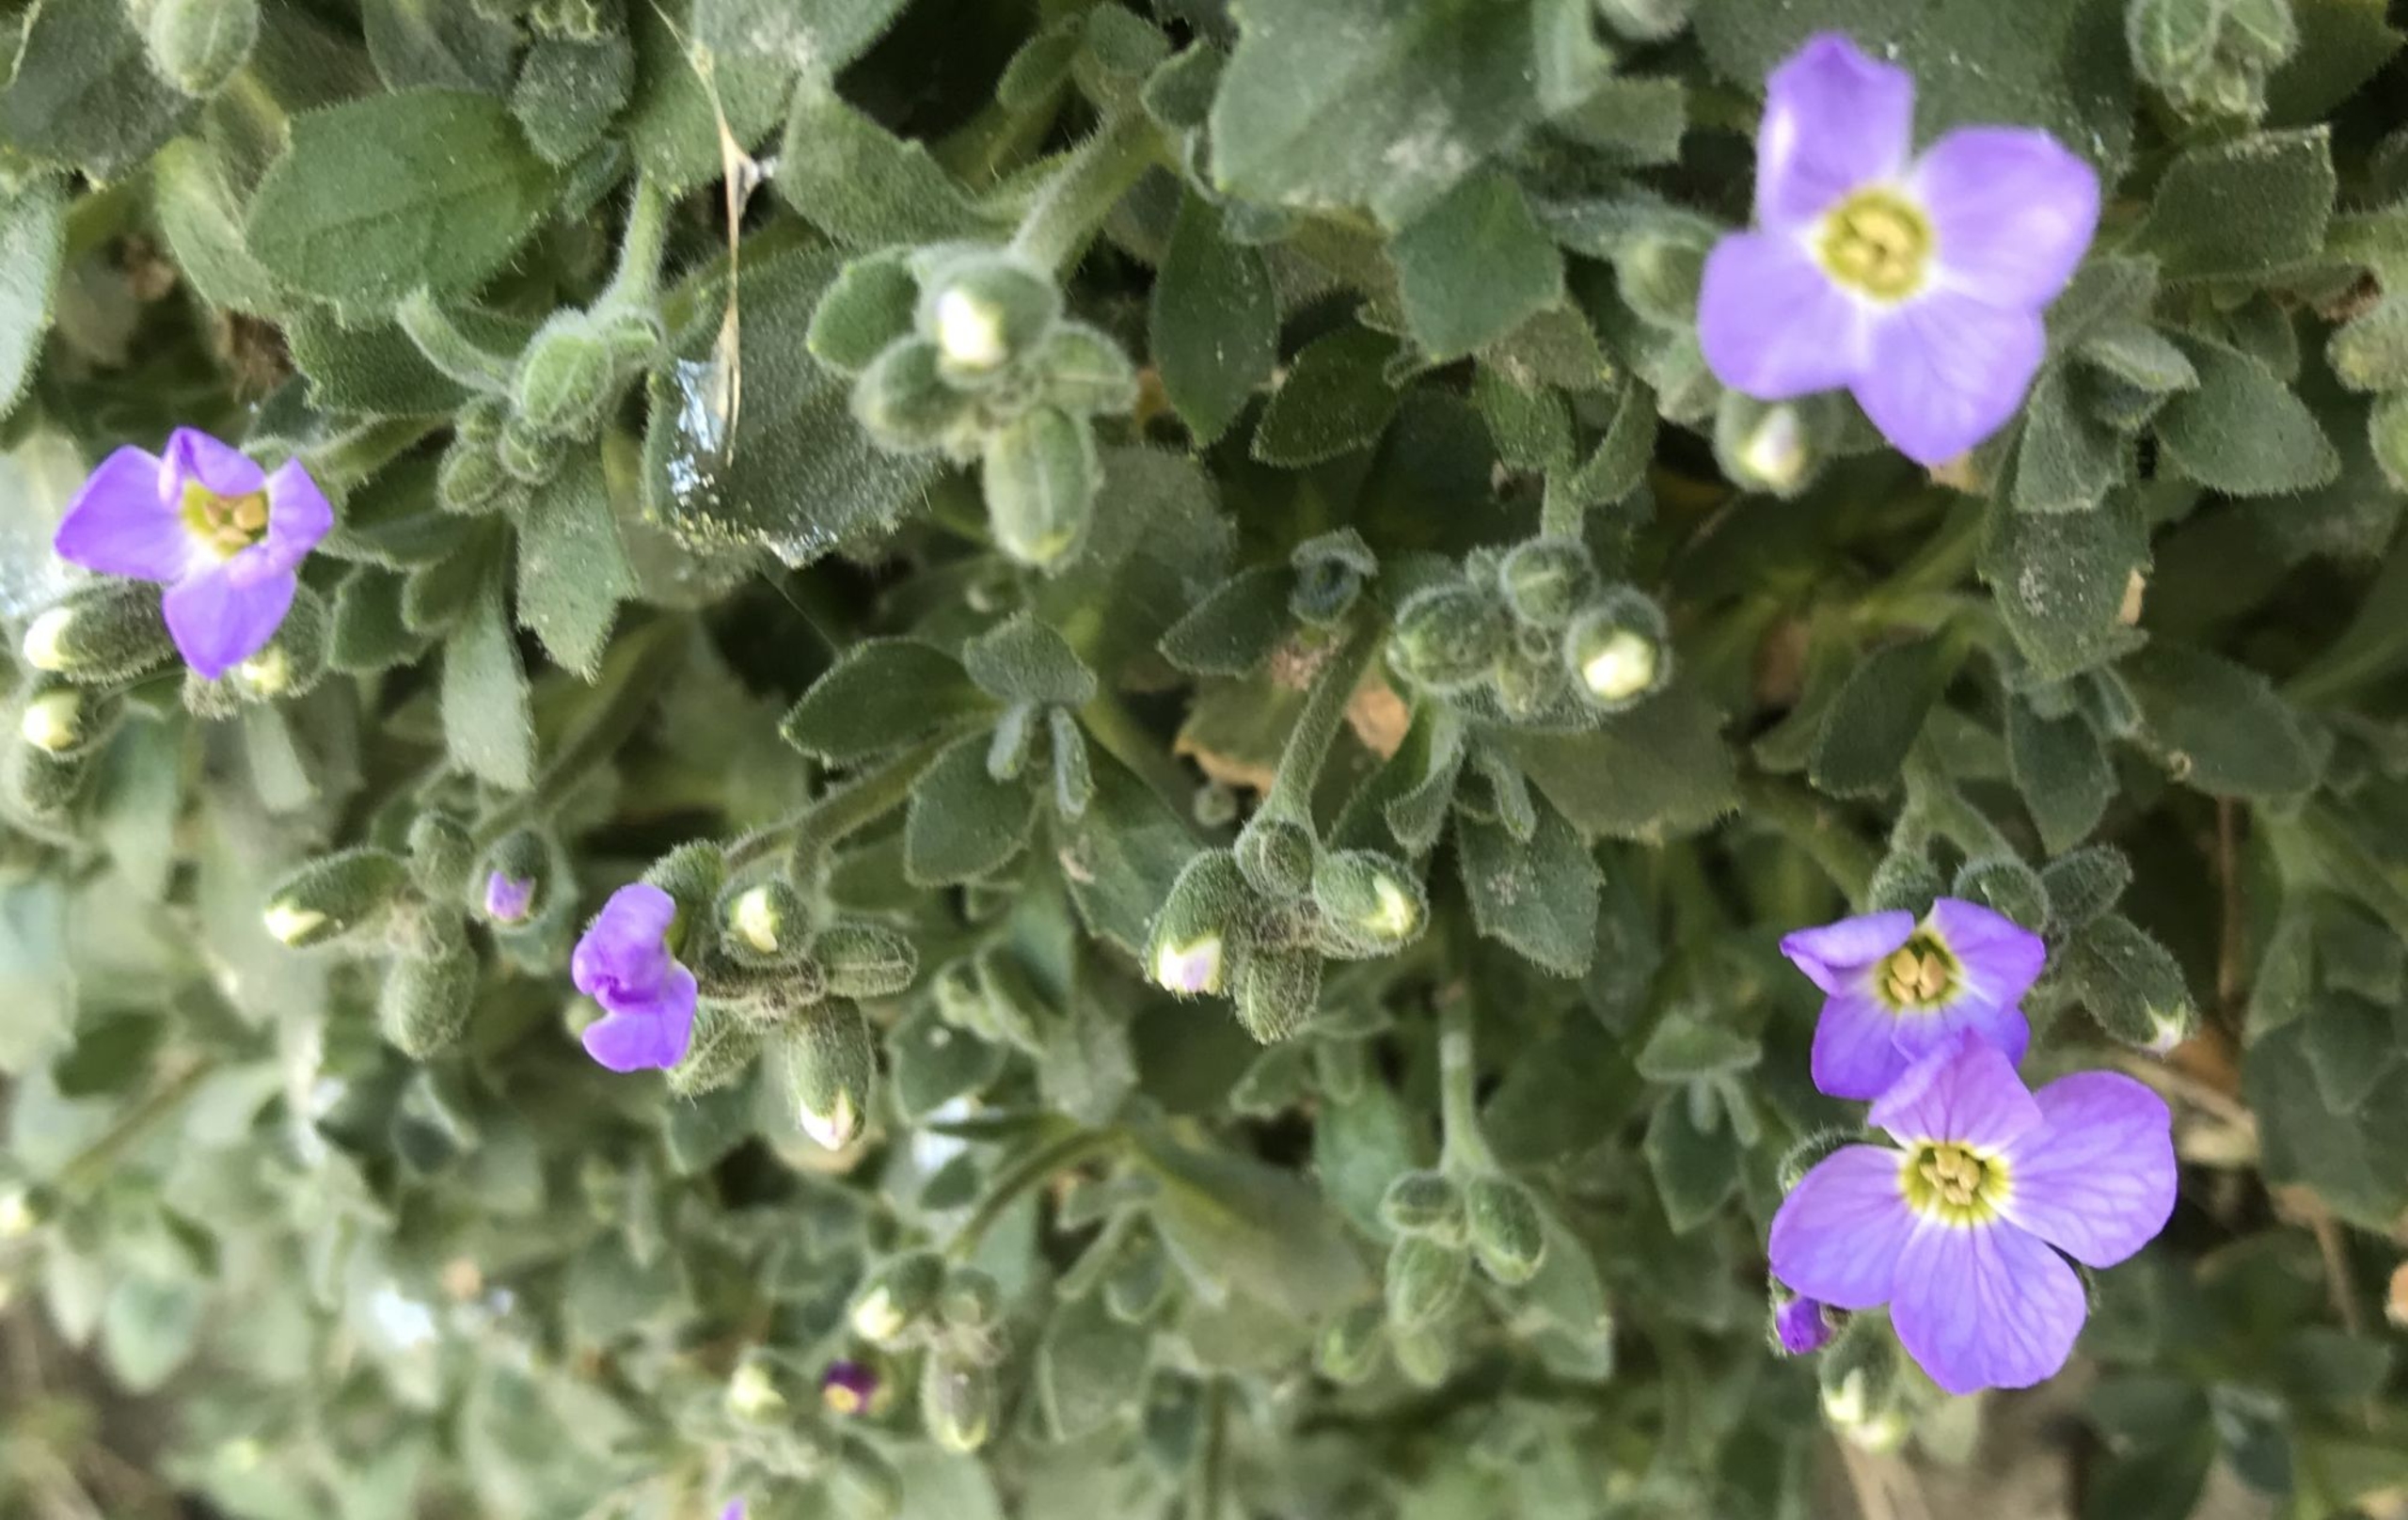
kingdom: Plantae
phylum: Tracheophyta
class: Magnoliopsida
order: Brassicales
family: Brassicaceae
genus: Aubrieta
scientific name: Aubrieta cultorum
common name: Blåpude
